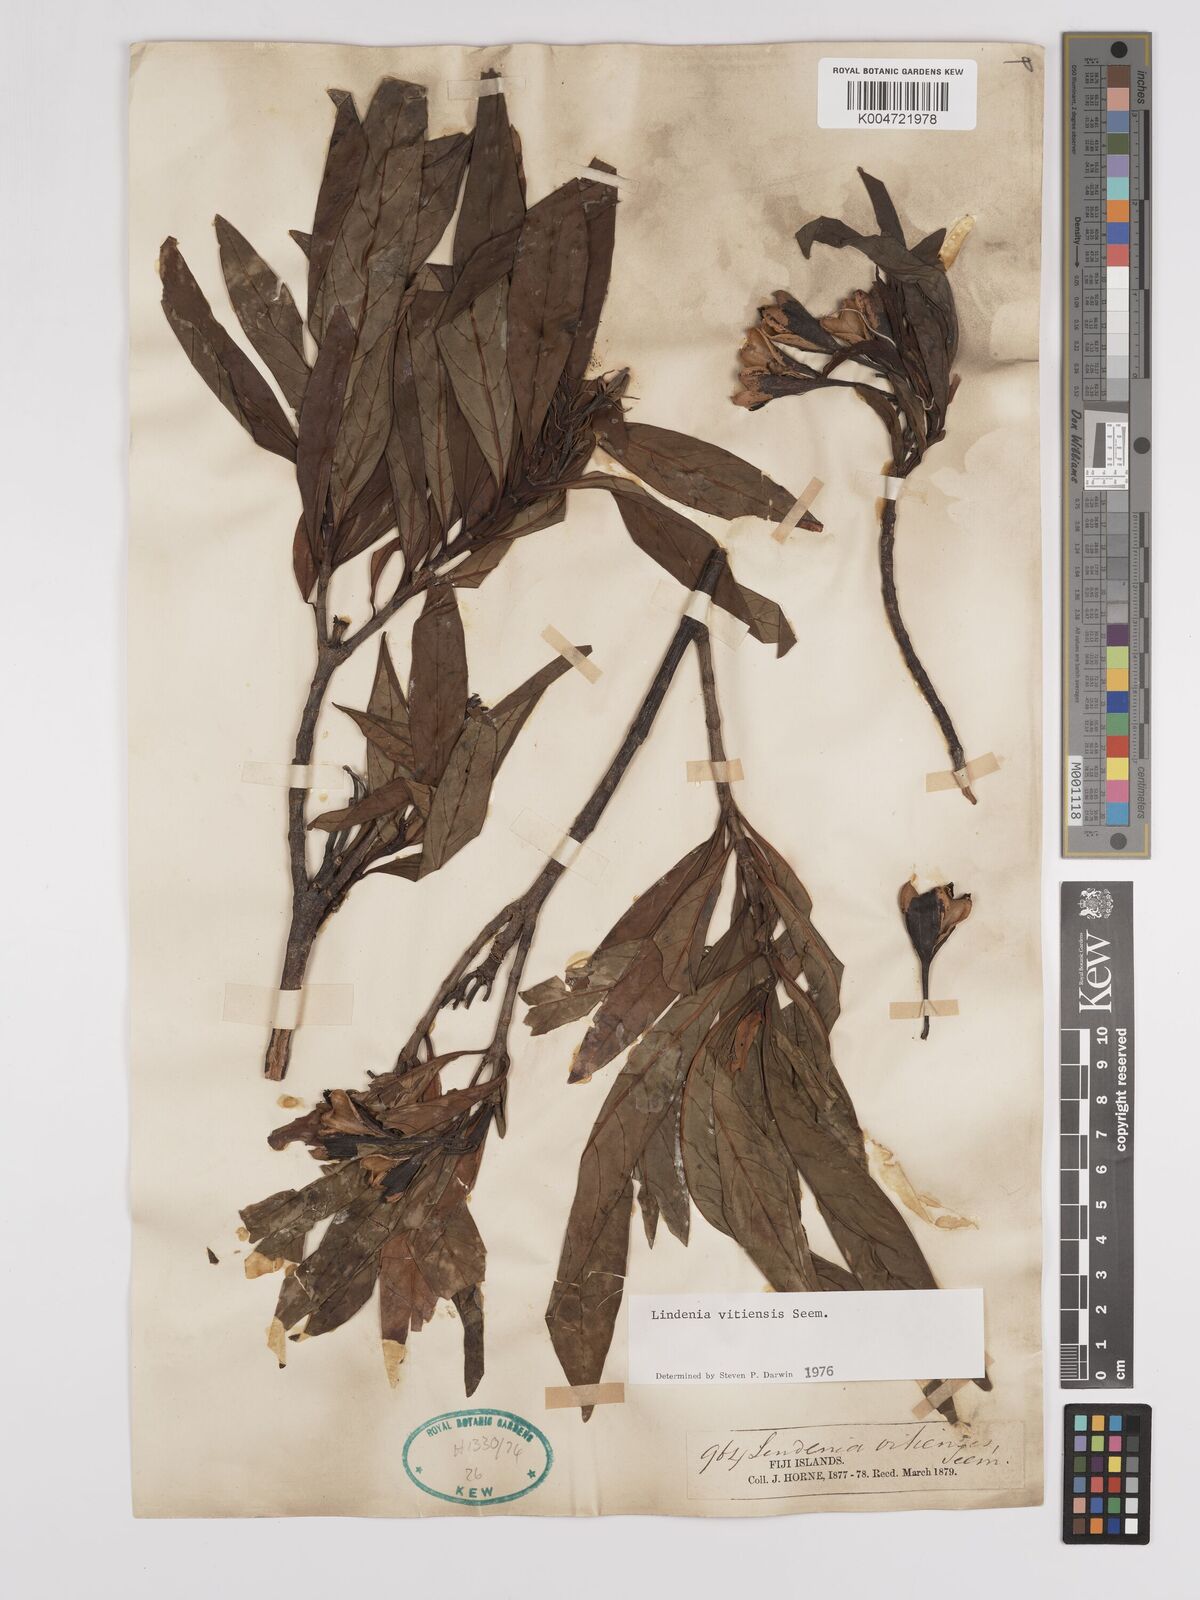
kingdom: Plantae
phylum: Tracheophyta
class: Magnoliopsida
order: Gentianales
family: Rubiaceae
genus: Augusta
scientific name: Augusta vitiensis
